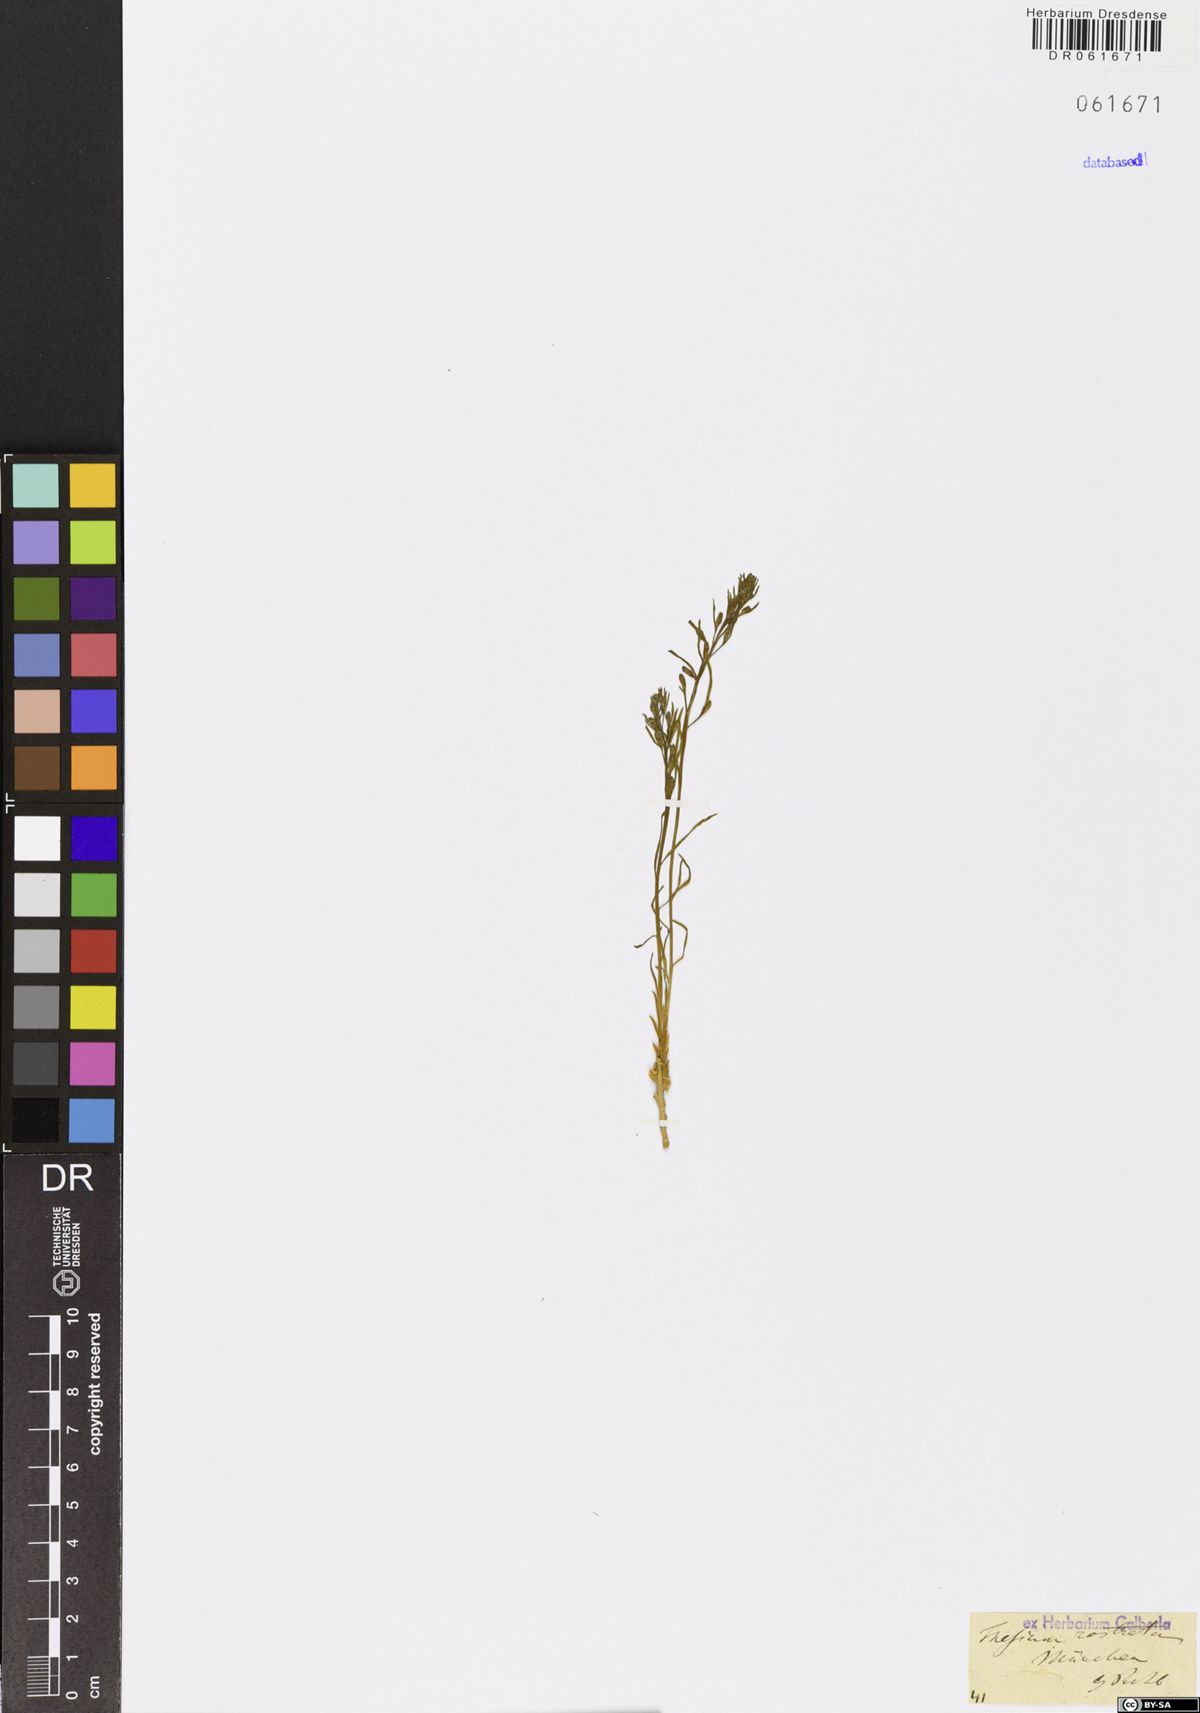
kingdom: Plantae
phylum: Tracheophyta
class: Magnoliopsida
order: Santalales
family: Thesiaceae
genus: Thesium
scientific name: Thesium rostratum
